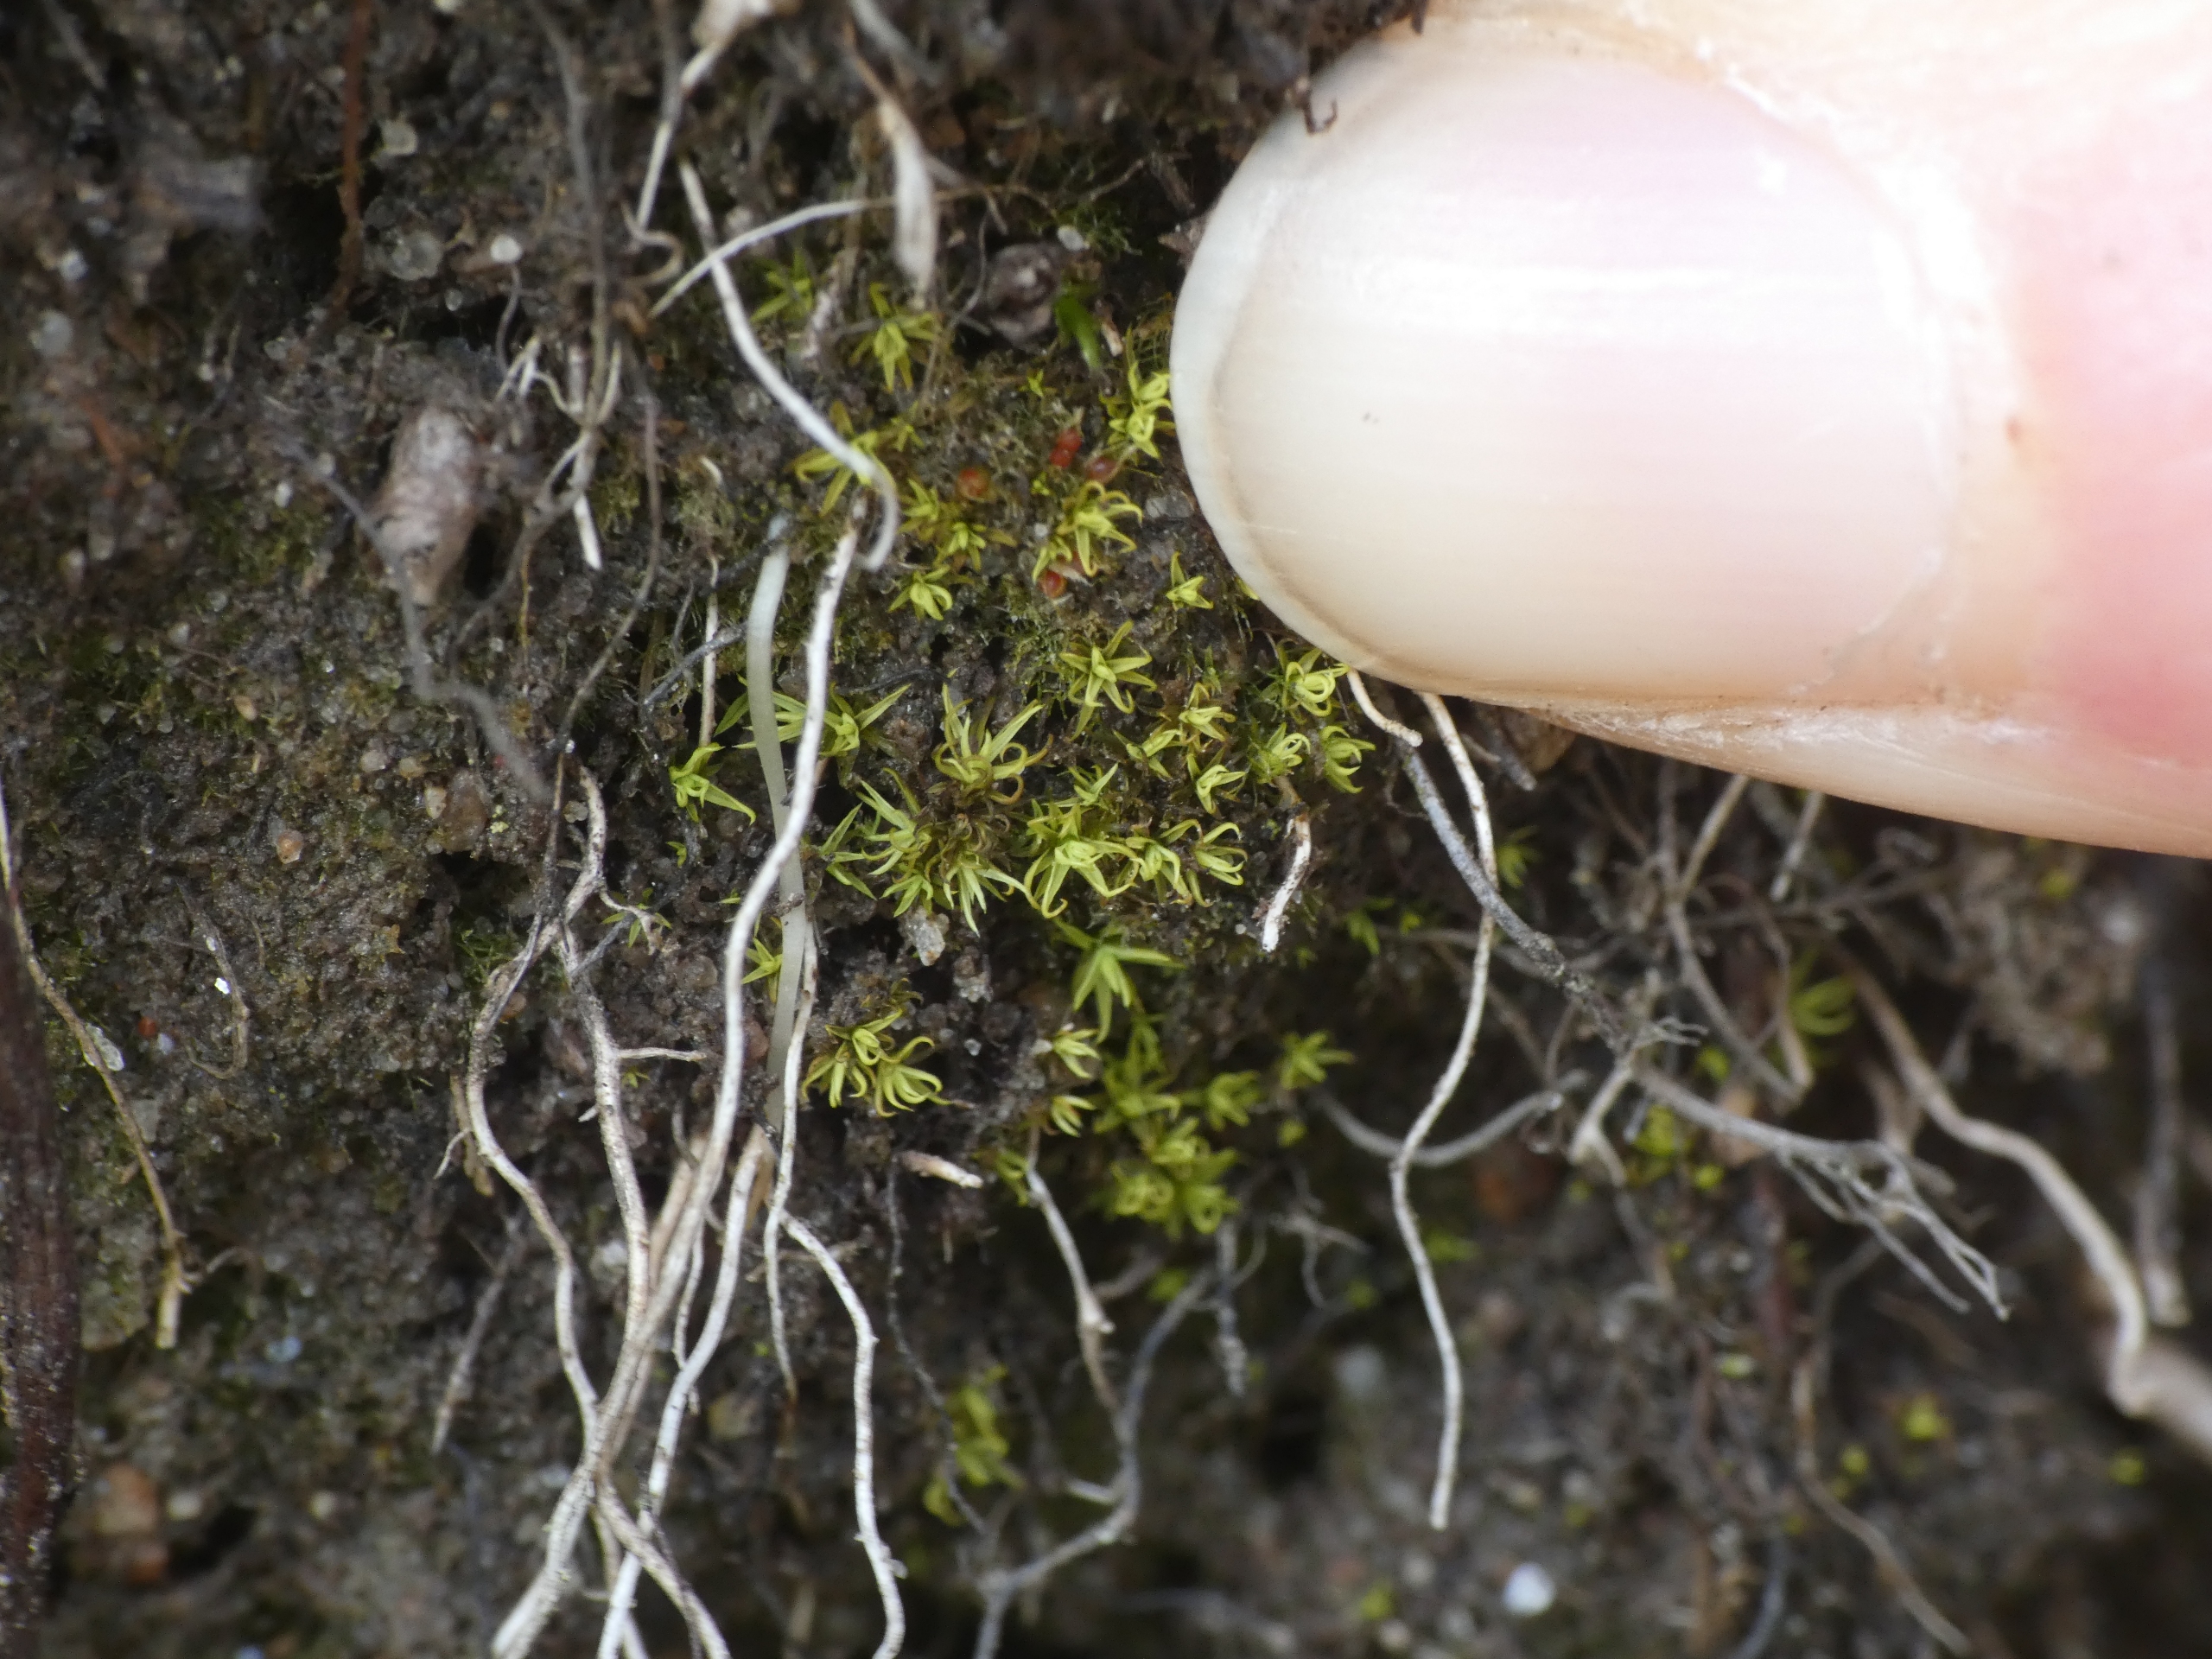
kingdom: Plantae
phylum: Bryophyta
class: Bryopsida
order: Pottiales
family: Ephemeraceae
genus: Ephemerum
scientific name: Ephemerum serratum
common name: Glat døgnmos
